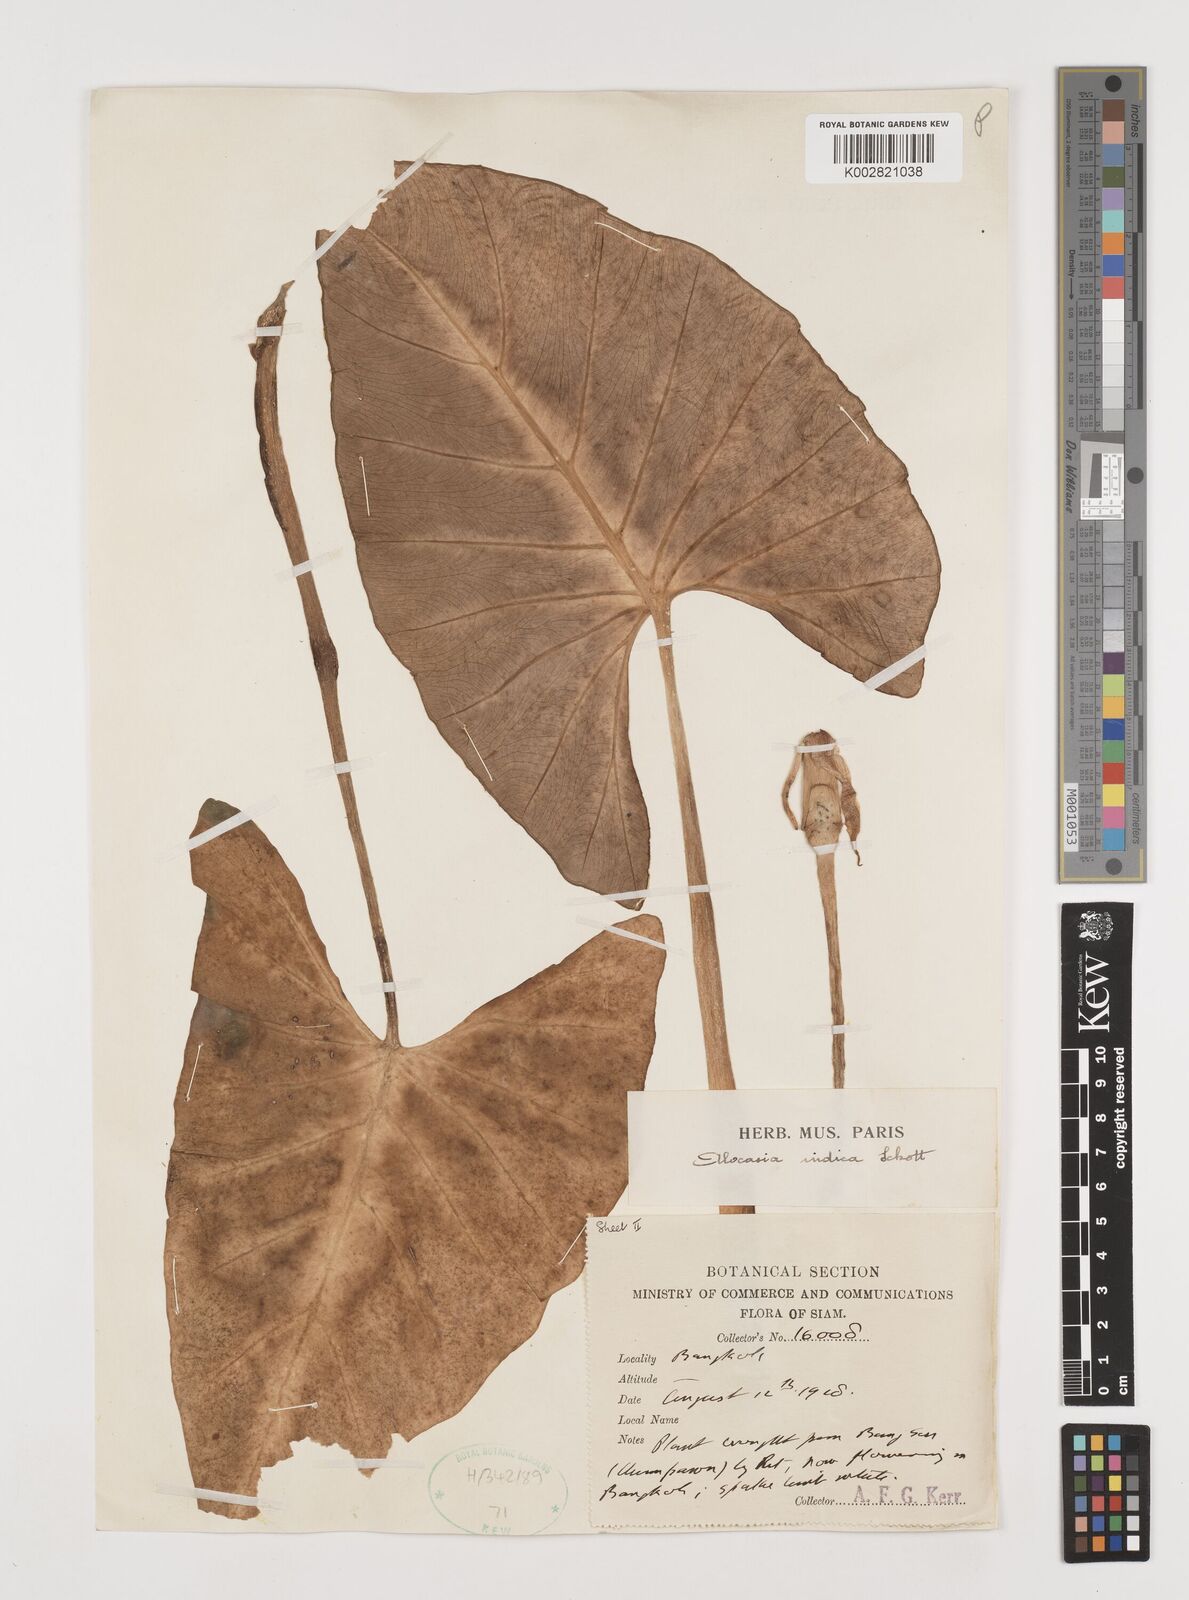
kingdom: Plantae
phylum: Tracheophyta
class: Liliopsida
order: Alismatales
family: Araceae
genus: Alocasia
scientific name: Alocasia macrorrhizos
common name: Giant taro
